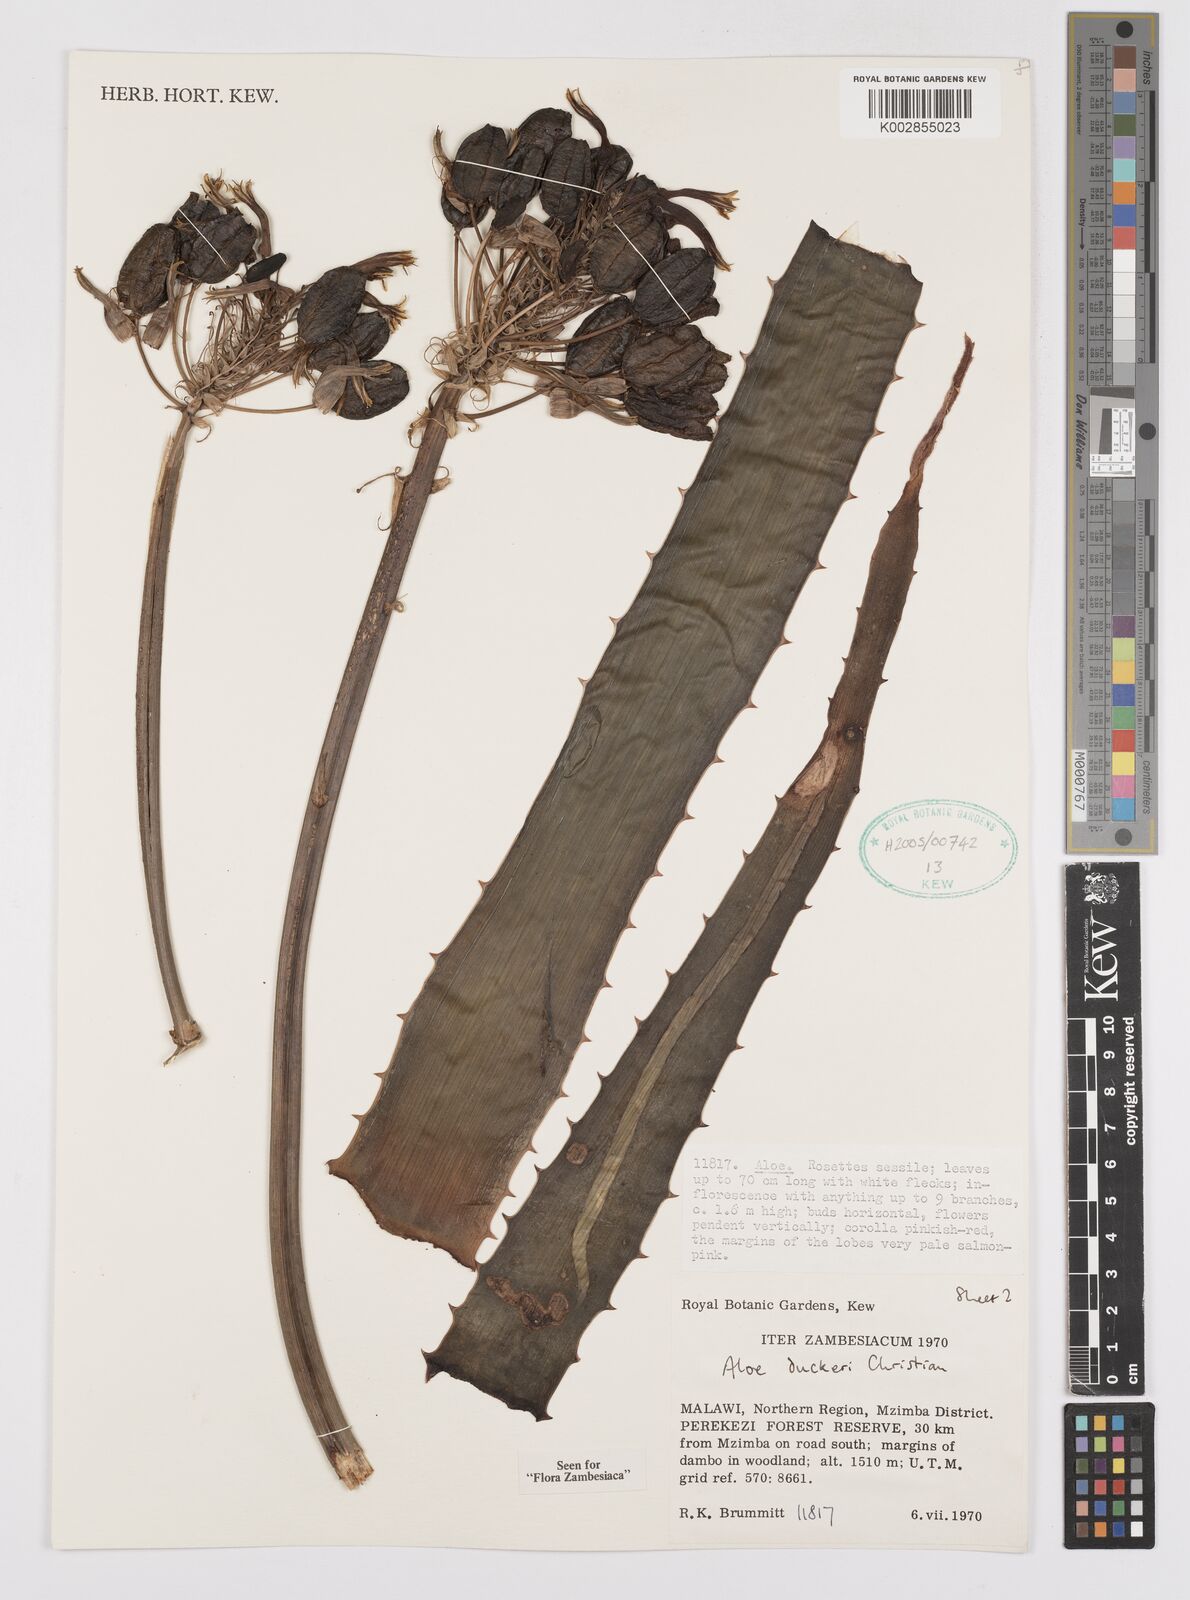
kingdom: Plantae
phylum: Tracheophyta
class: Liliopsida
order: Asparagales
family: Asphodelaceae
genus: Aloe
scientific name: Aloe duckeri
